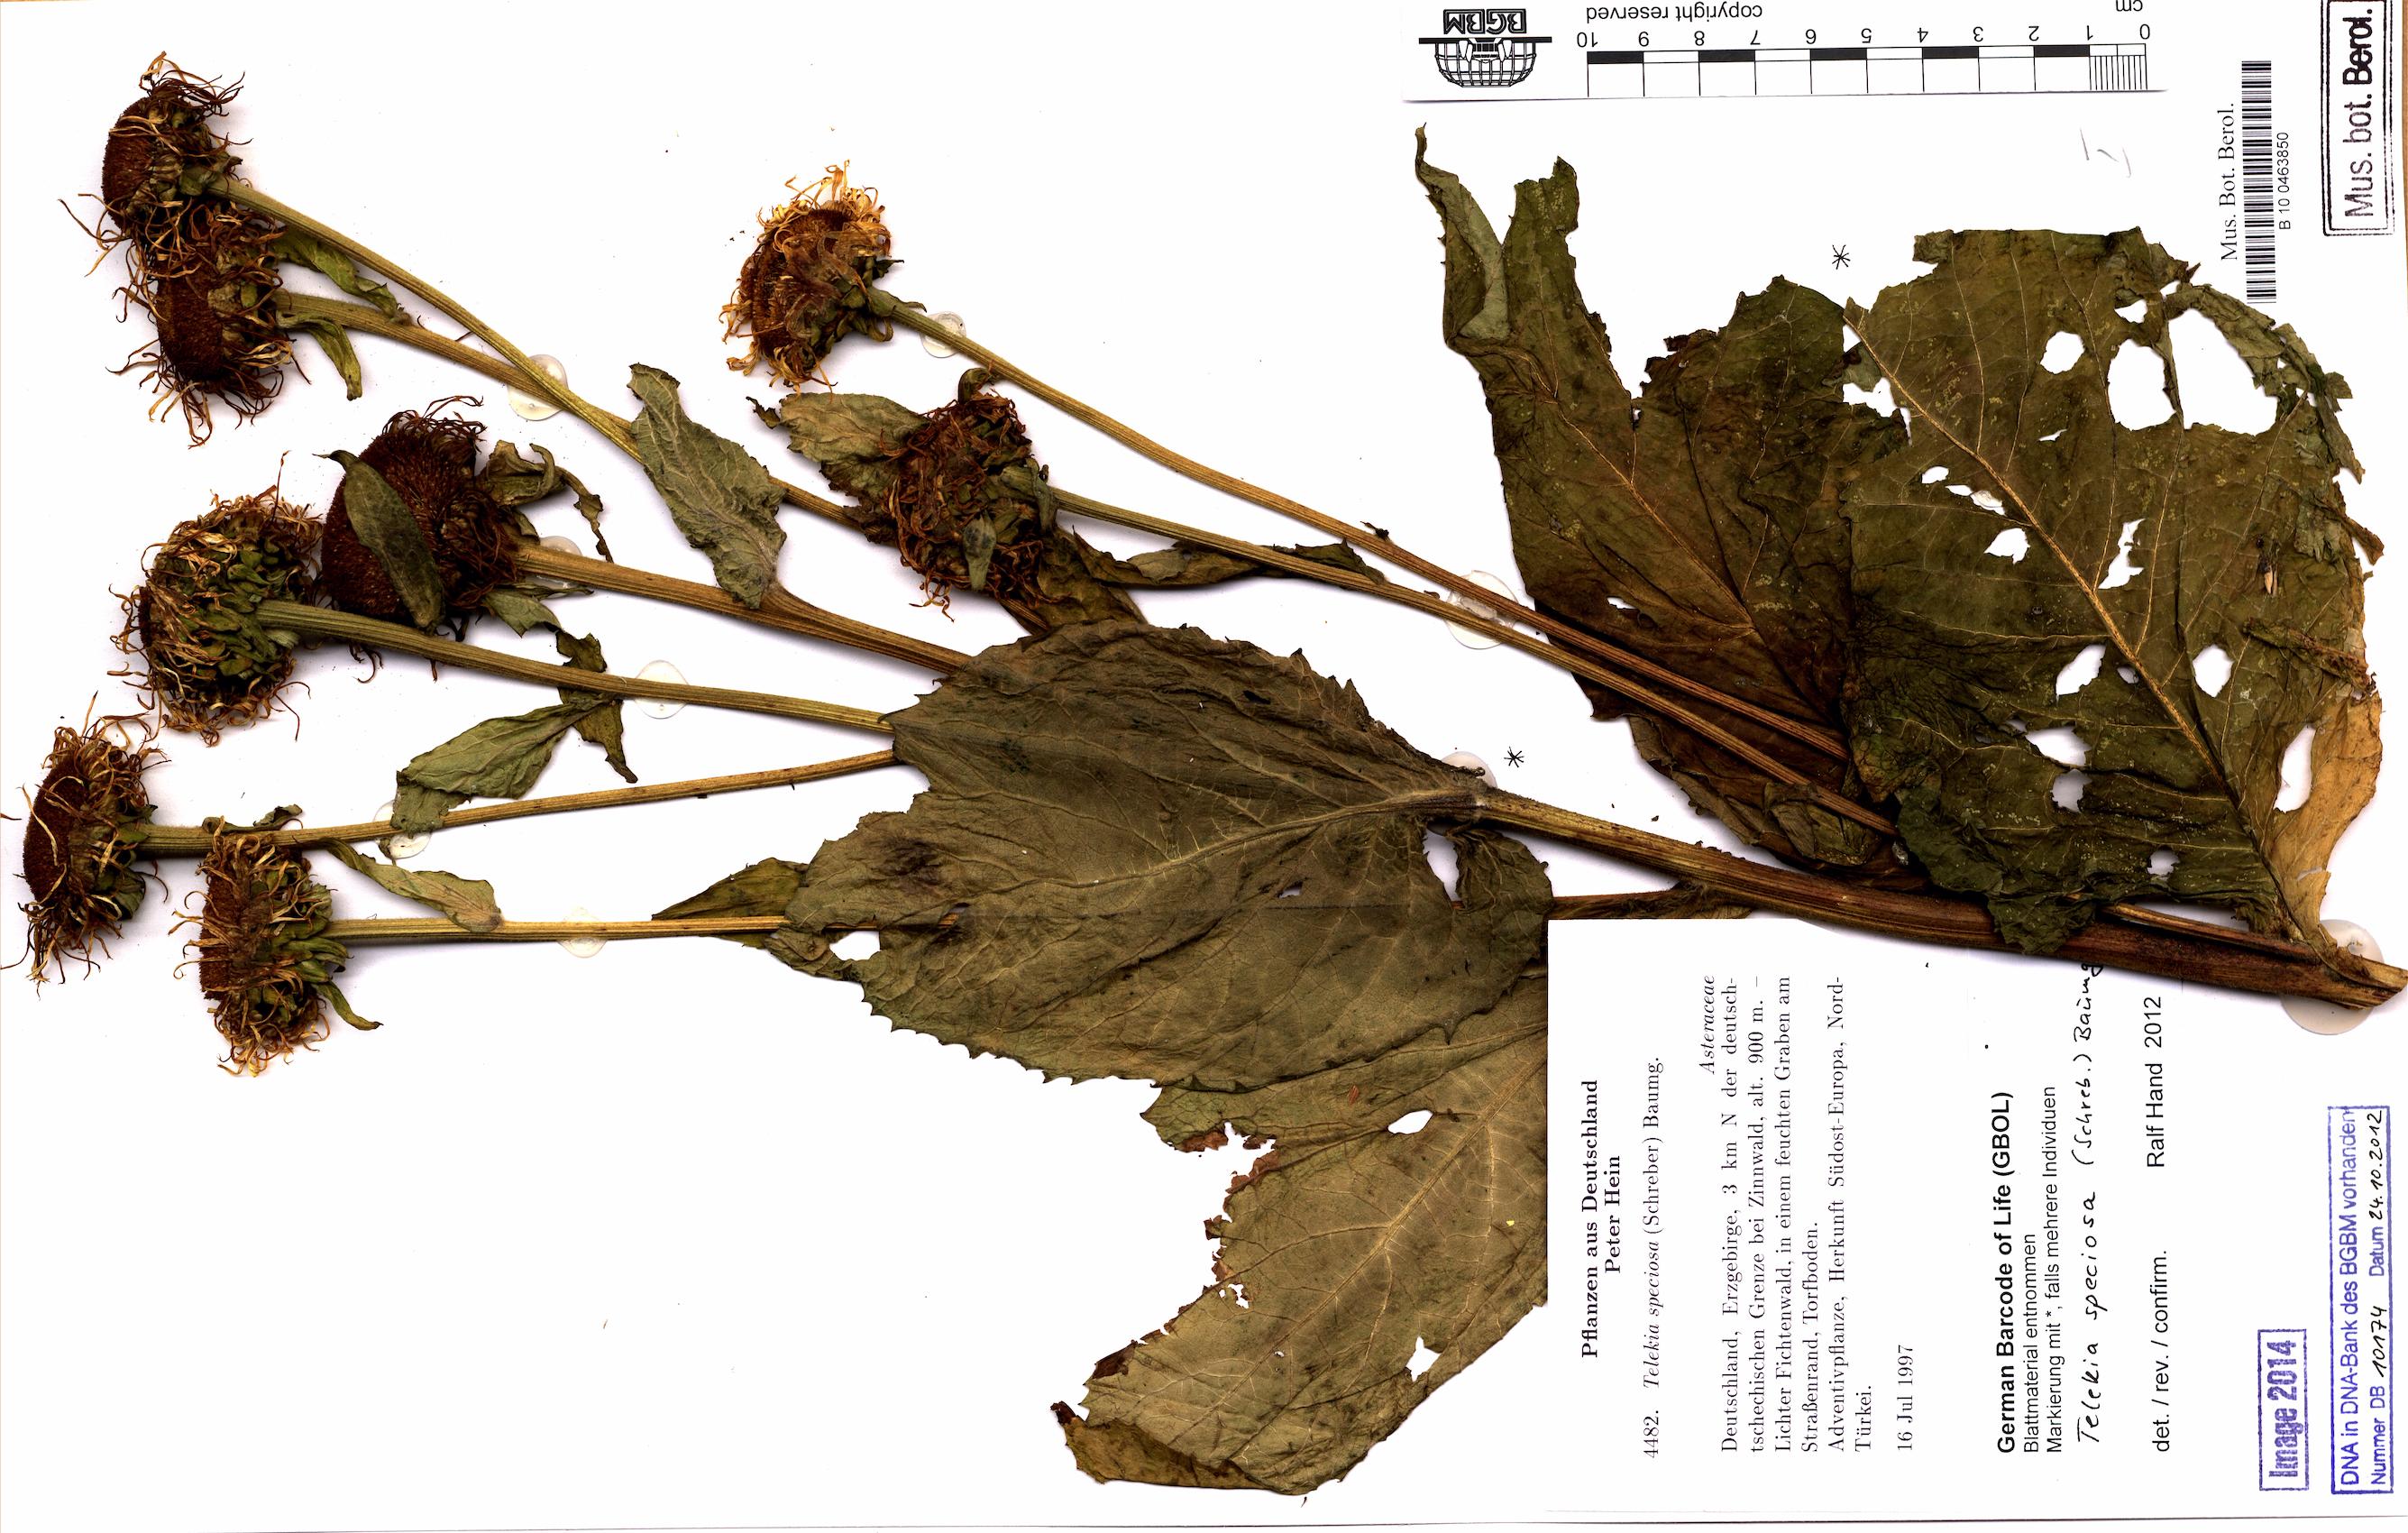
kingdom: Plantae
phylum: Tracheophyta
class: Magnoliopsida
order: Asterales
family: Asteraceae
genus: Telekia
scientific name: Telekia speciosa
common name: Yellow oxeye
